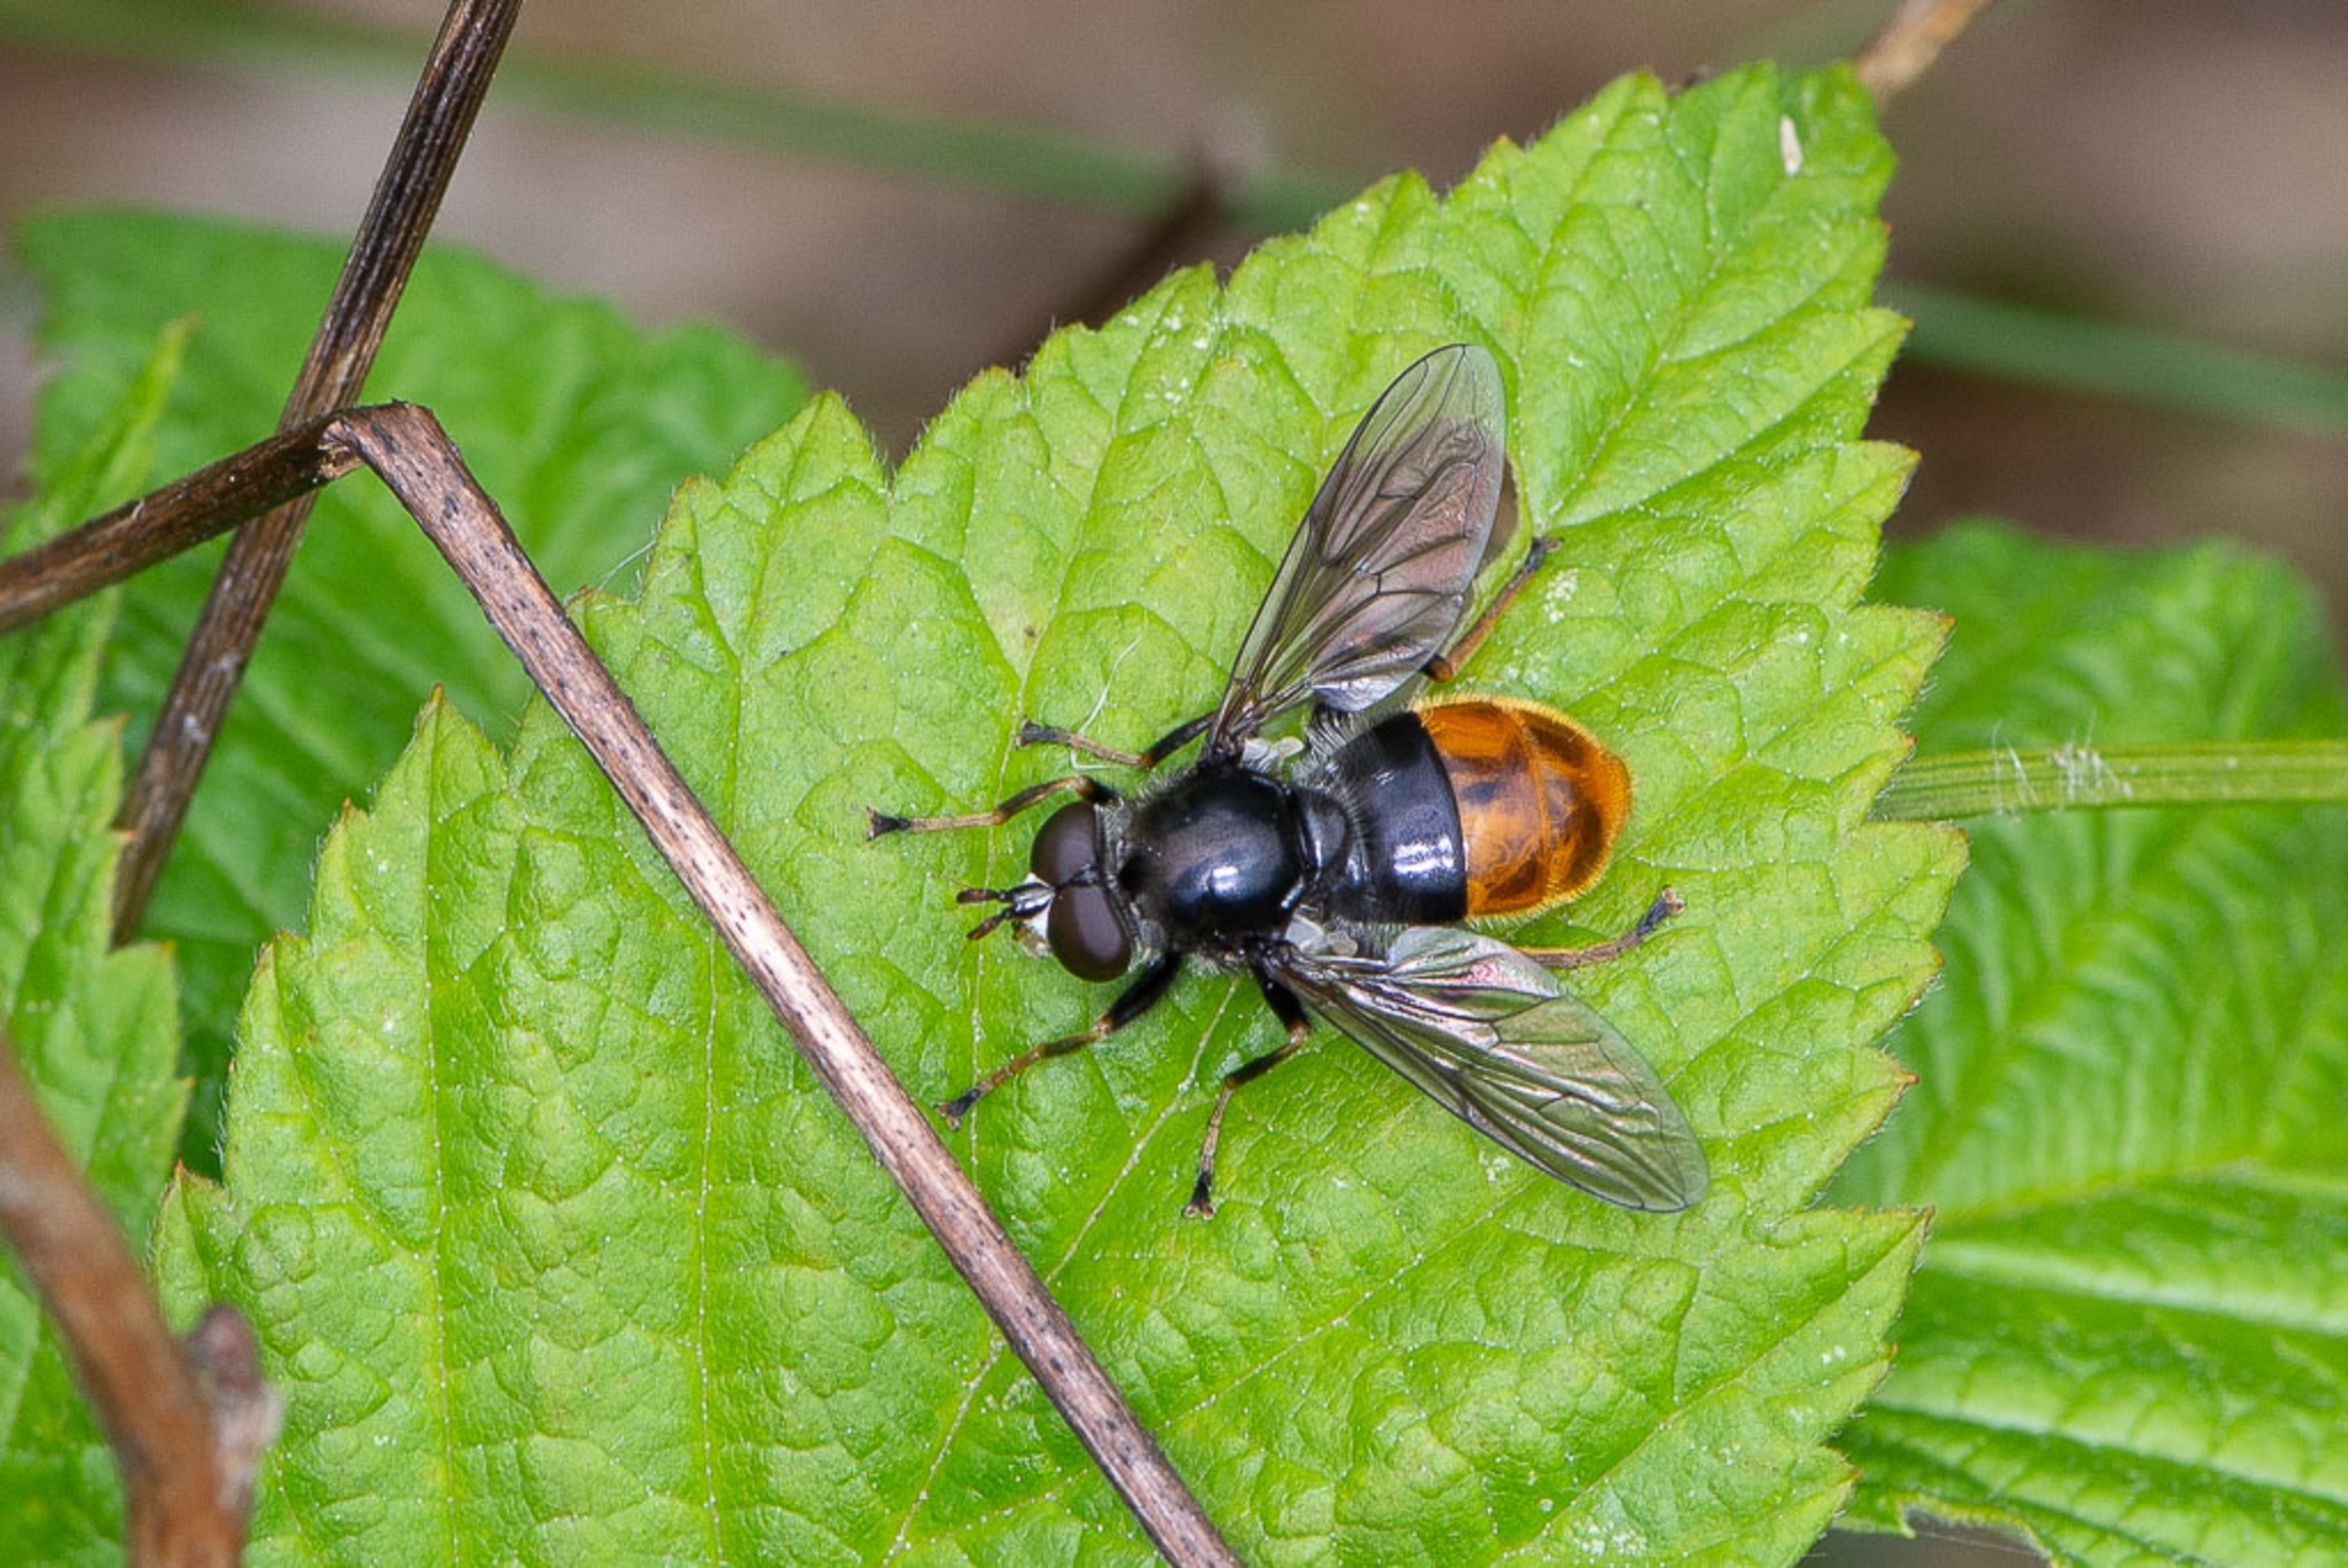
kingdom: Animalia
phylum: Arthropoda
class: Insecta
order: Diptera
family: Syrphidae
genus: Blera
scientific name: Blera fallax
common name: Stub-svirreflue
